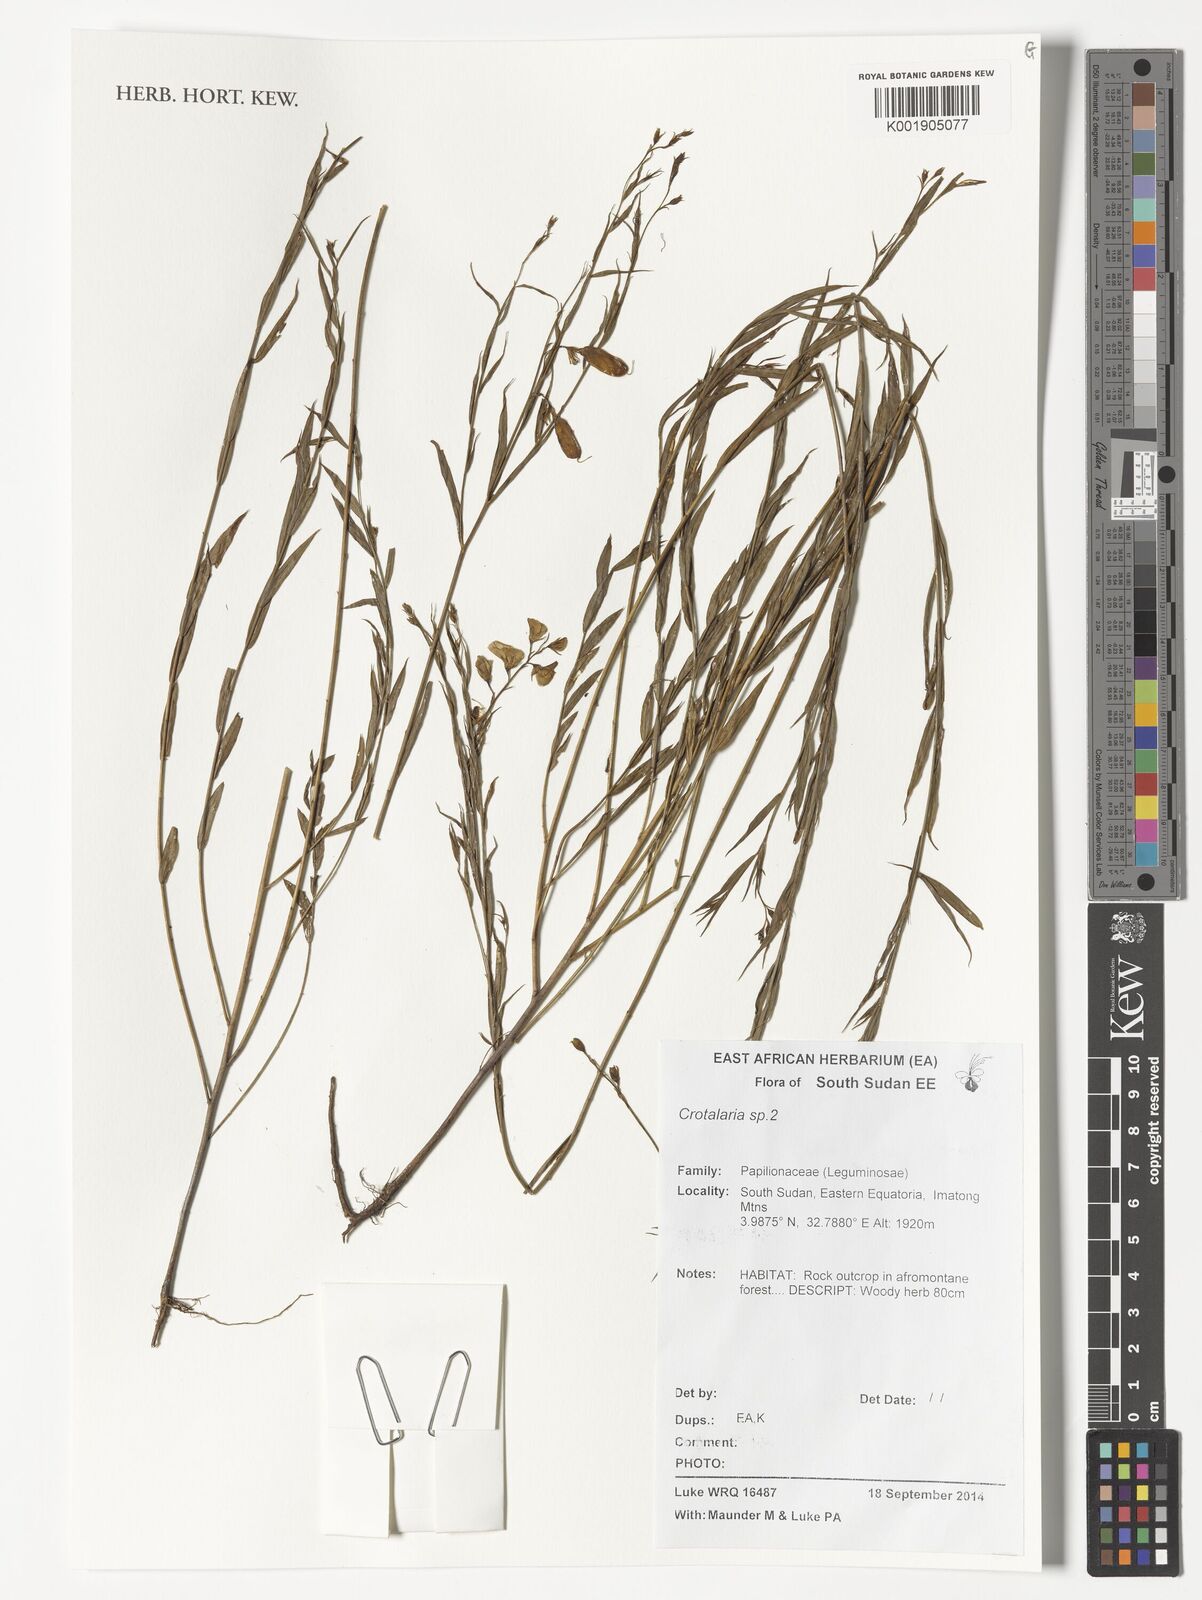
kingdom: Plantae
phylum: Tracheophyta
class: Magnoliopsida
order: Fabales
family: Fabaceae
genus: Crotalaria
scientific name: Crotalaria
